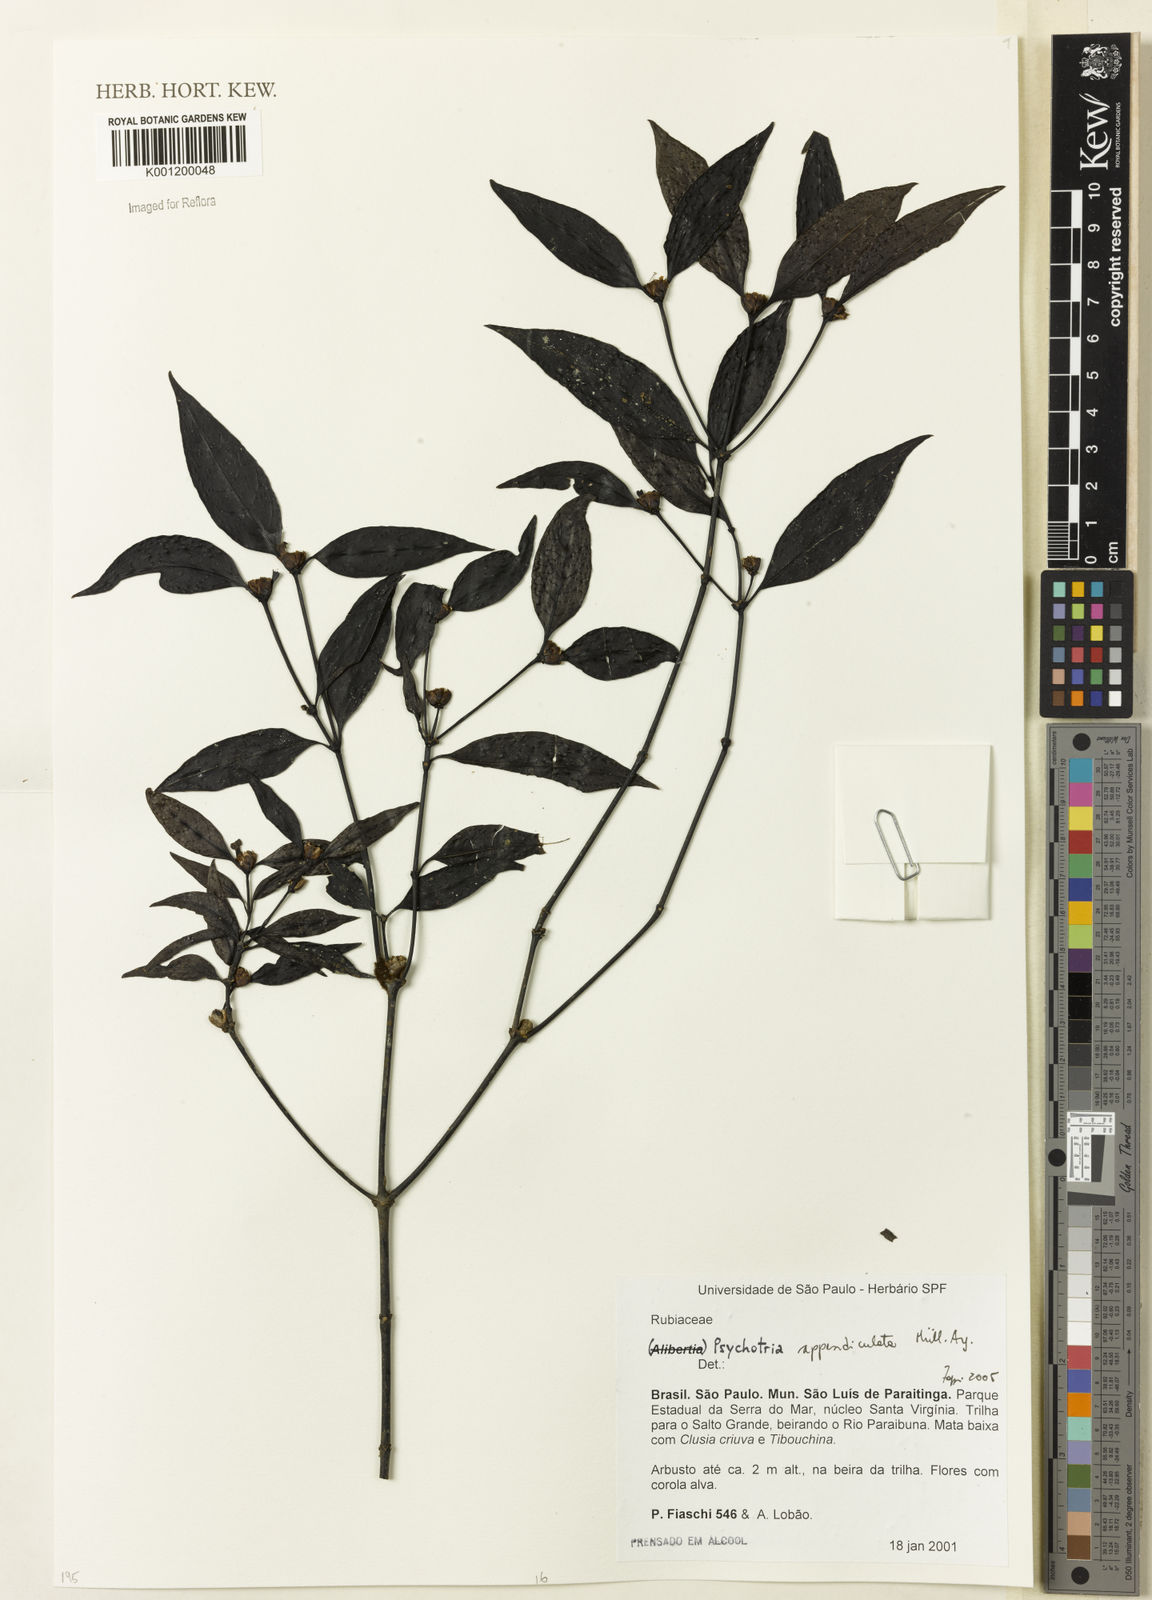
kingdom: Plantae
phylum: Tracheophyta
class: Magnoliopsida
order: Gentianales
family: Rubiaceae
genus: Psychotria
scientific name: Psychotria
